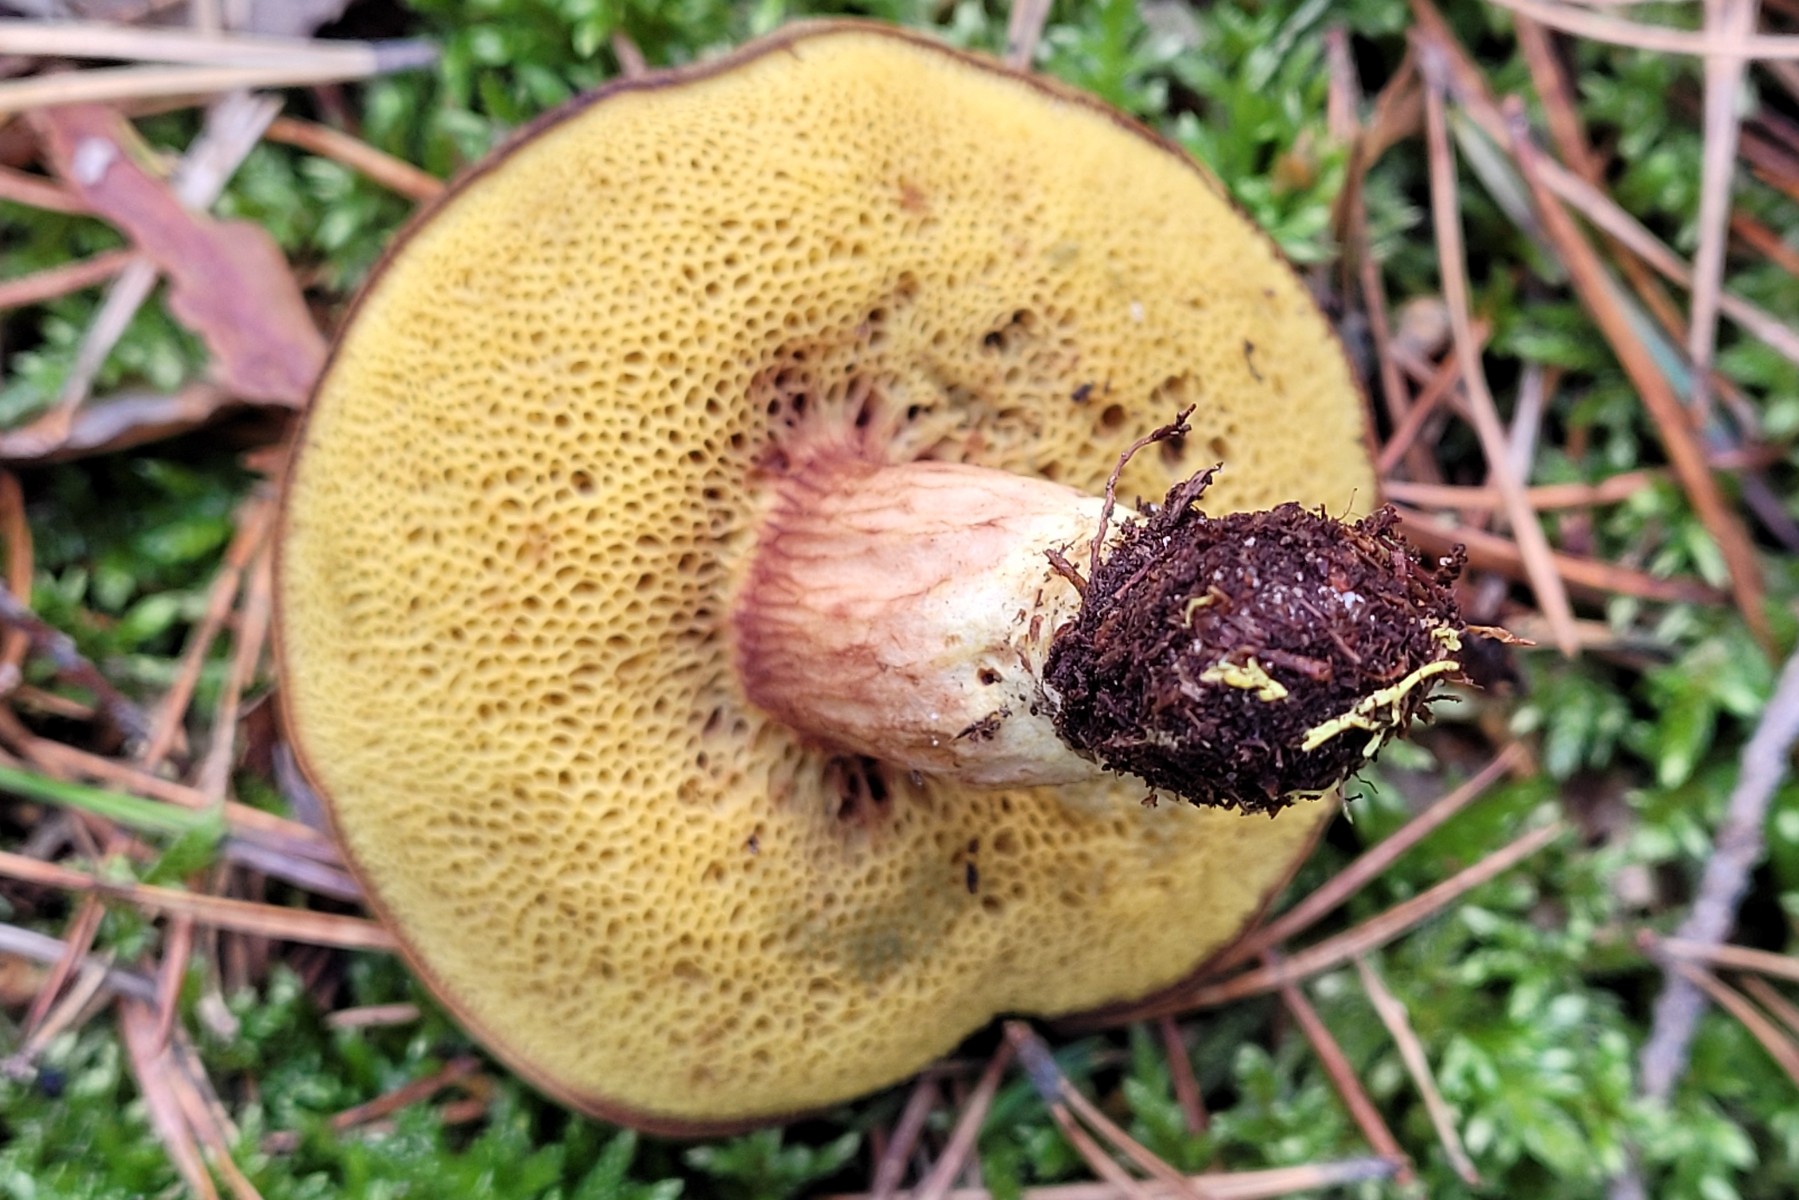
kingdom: Fungi
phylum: Basidiomycota
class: Agaricomycetes
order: Boletales
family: Boletaceae
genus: Xerocomus
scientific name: Xerocomus ferrugineus
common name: vaskeskinds-rørhat
